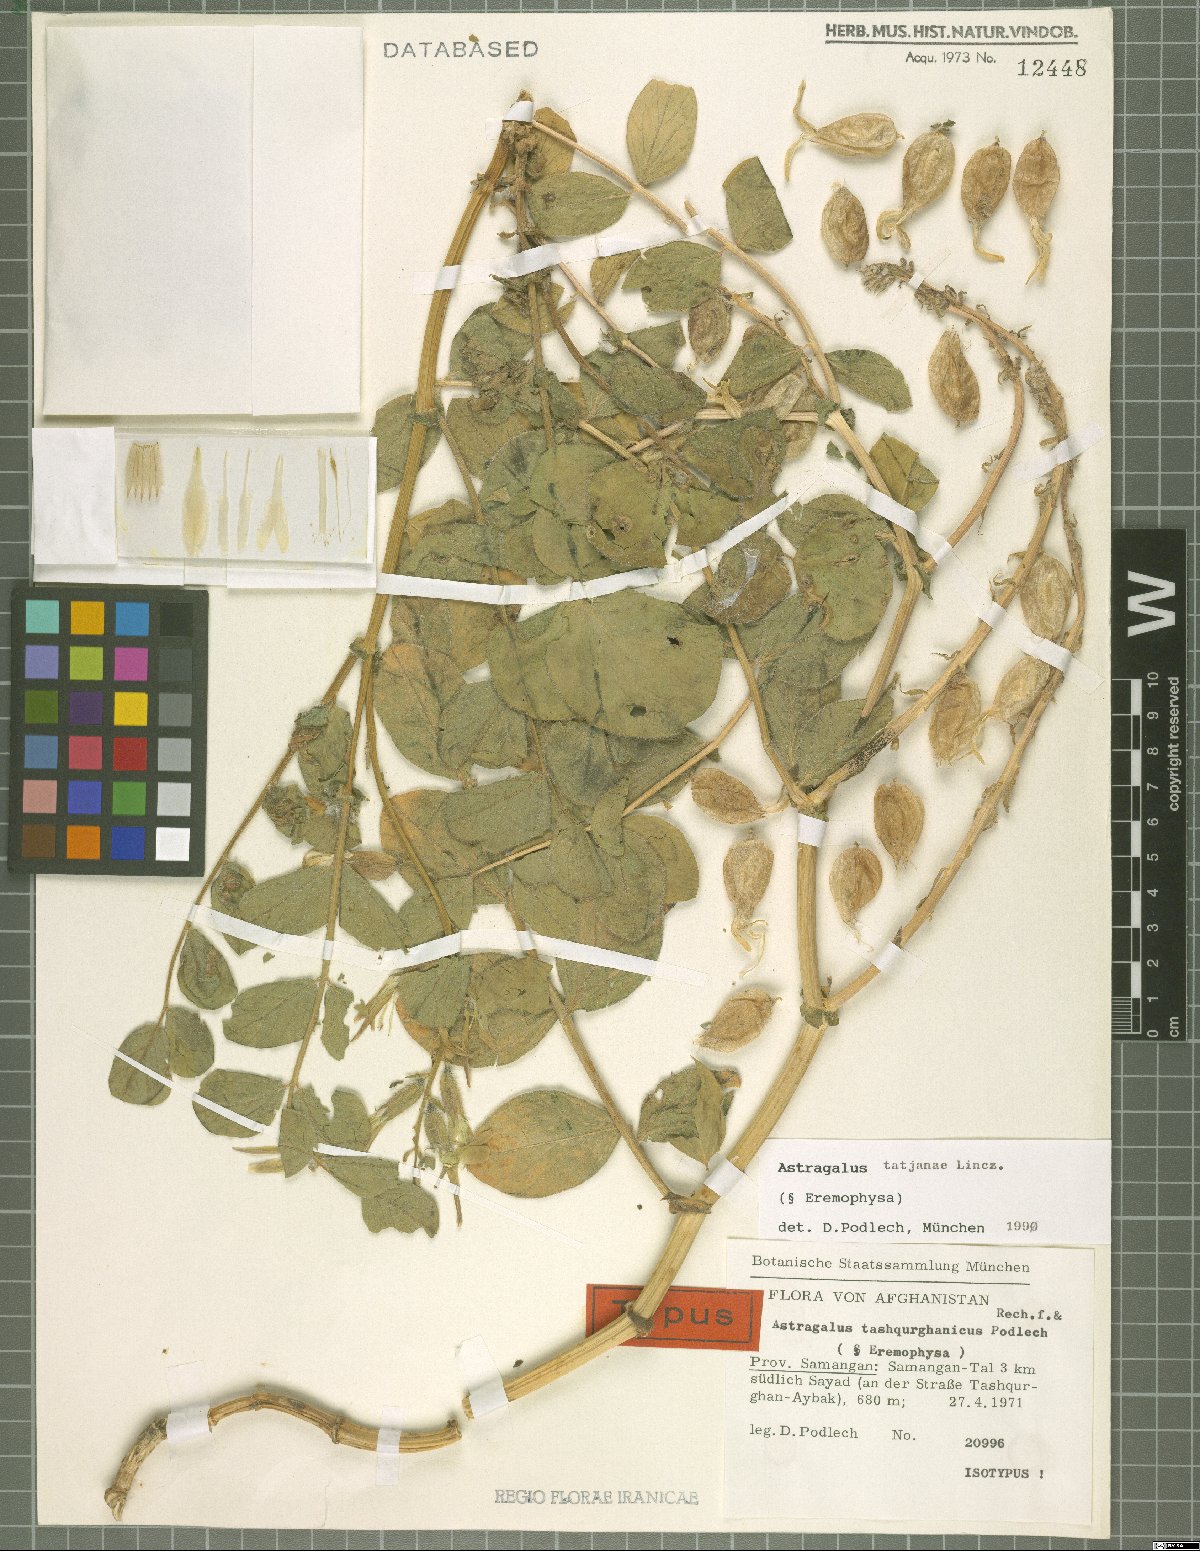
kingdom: Plantae
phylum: Tracheophyta
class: Magnoliopsida
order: Fabales
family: Fabaceae
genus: Astragalus
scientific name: Astragalus tatjanae
